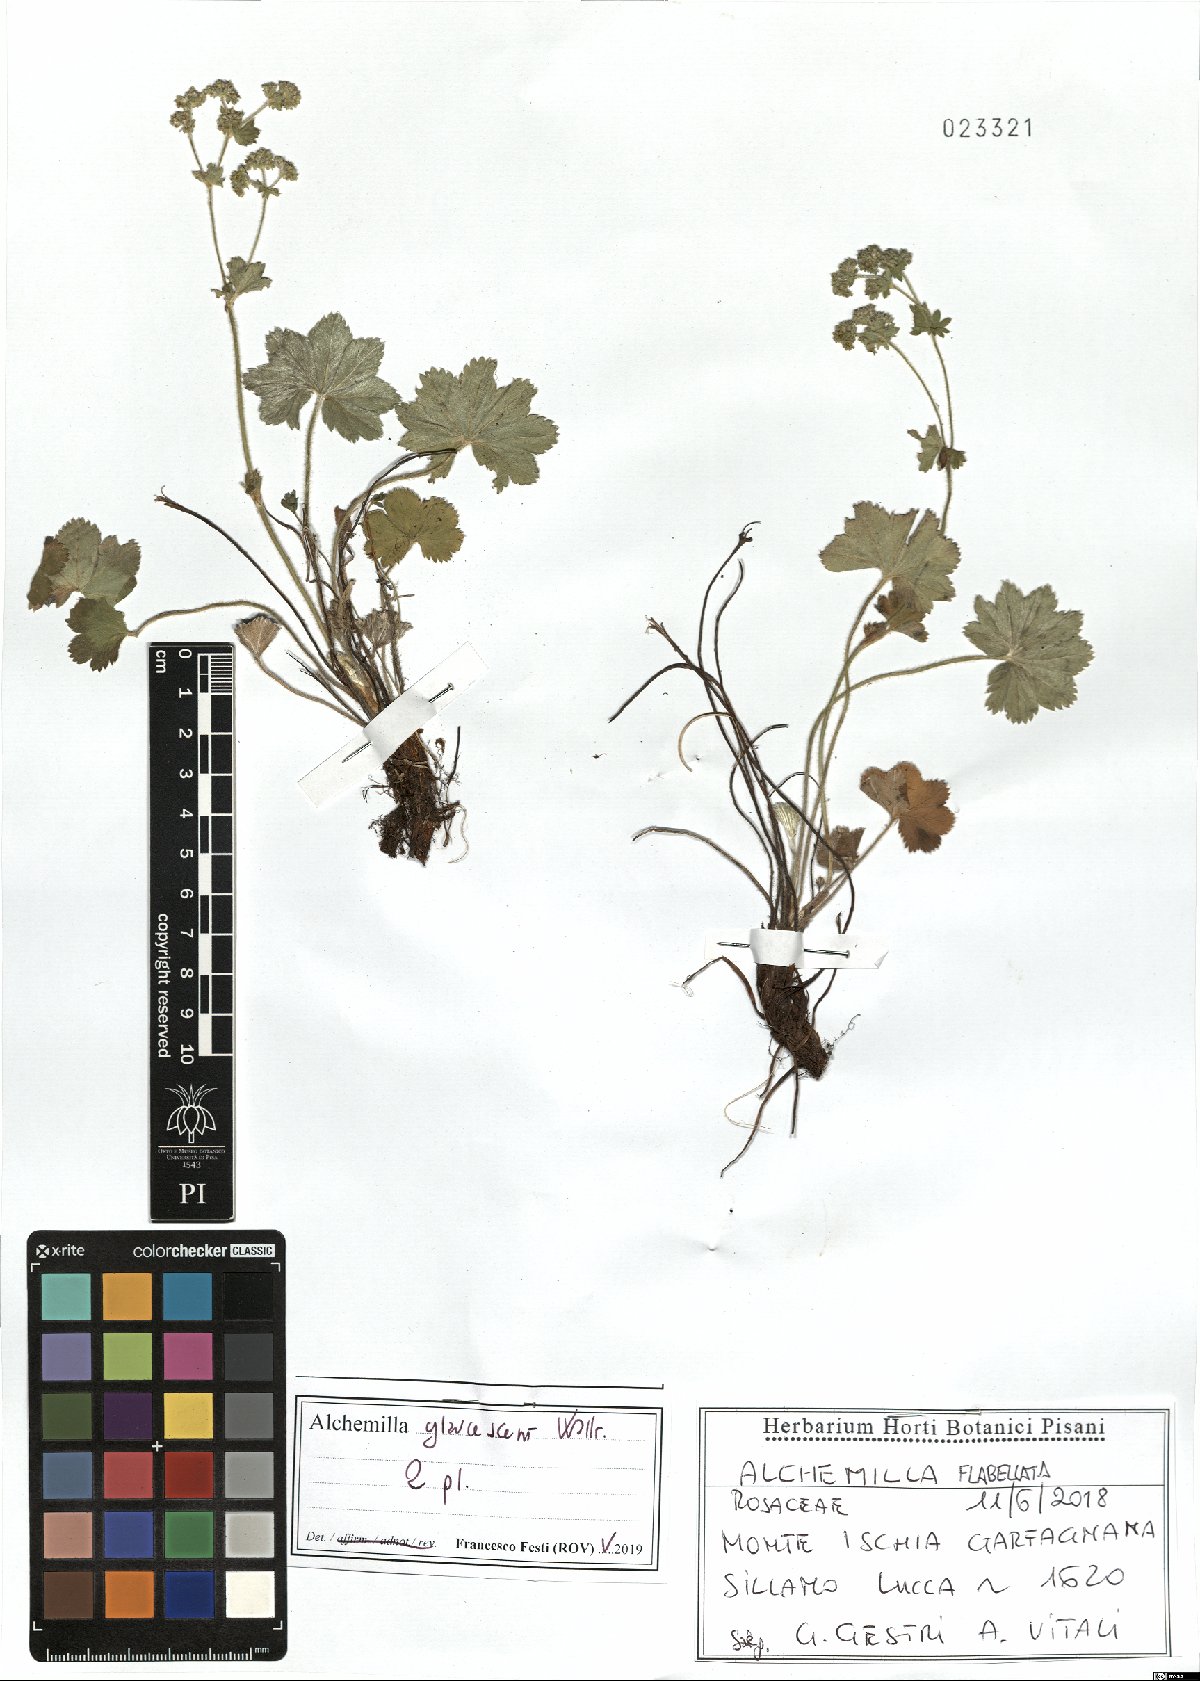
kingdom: Plantae
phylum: Tracheophyta
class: Magnoliopsida
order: Rosales
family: Rosaceae
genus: Alchemilla
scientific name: Alchemilla flabellata
